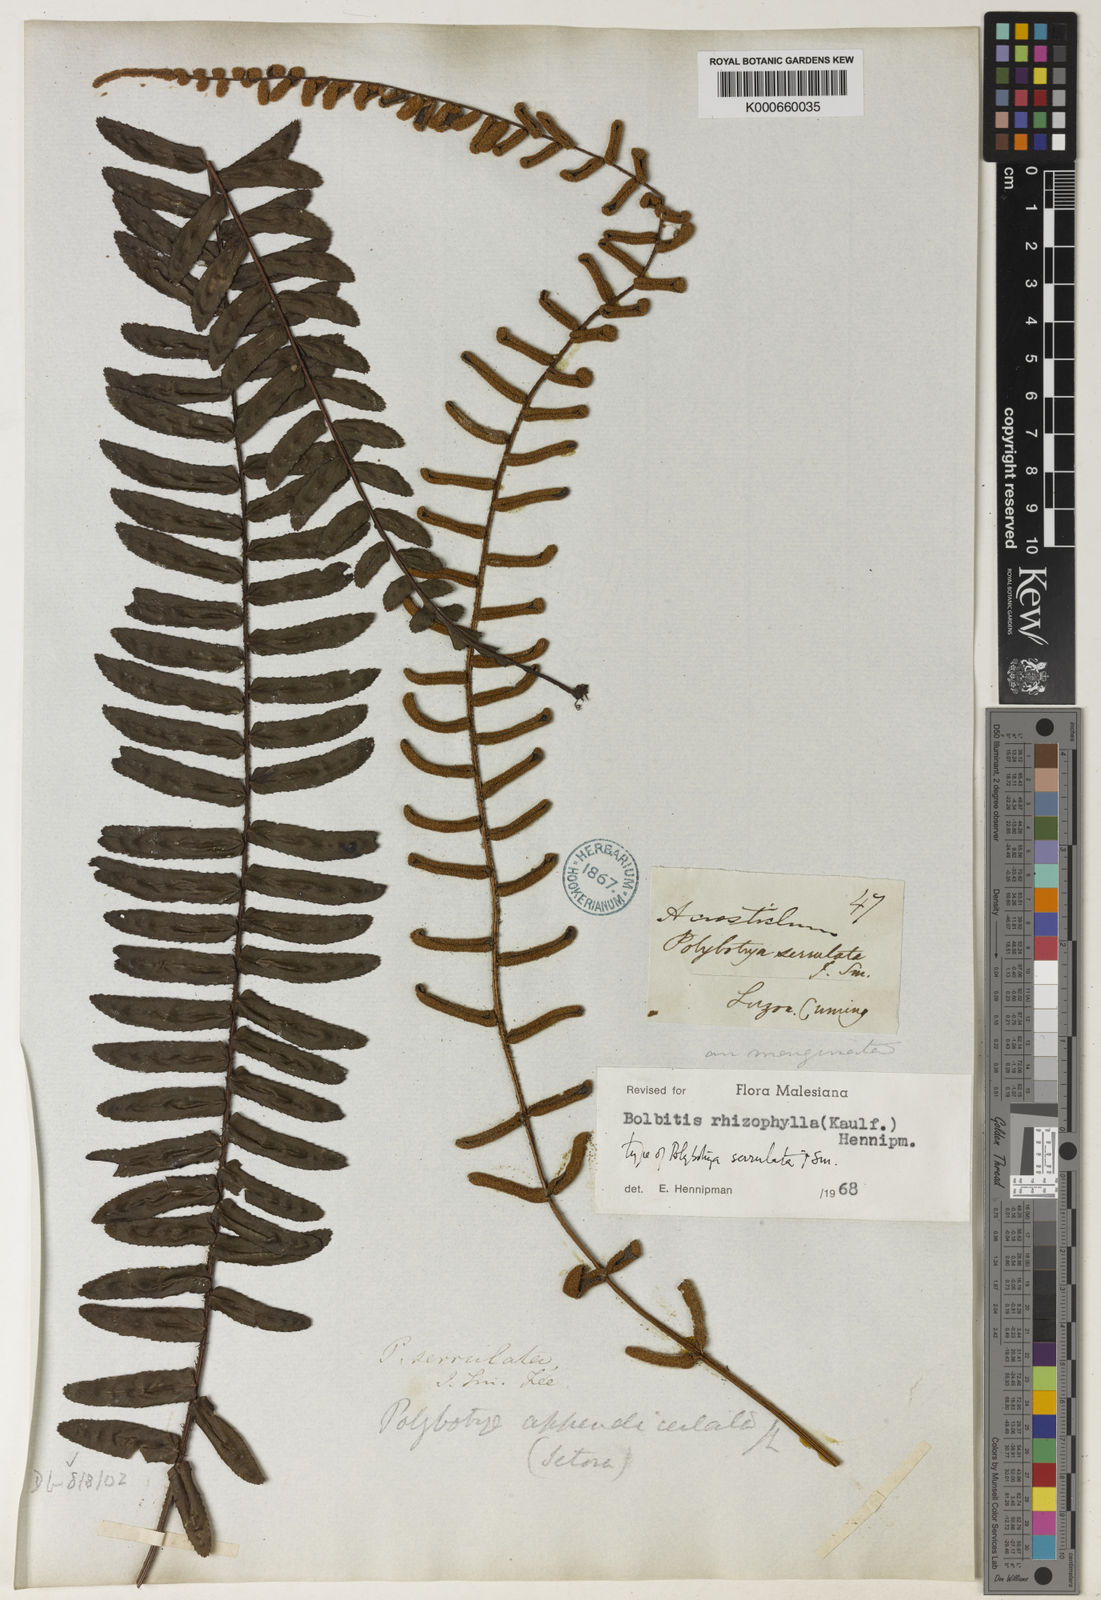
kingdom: Plantae
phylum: Tracheophyta
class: Polypodiopsida
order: Polypodiales
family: Dryopteridaceae
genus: Bolbitis
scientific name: Bolbitis rhizophylla
